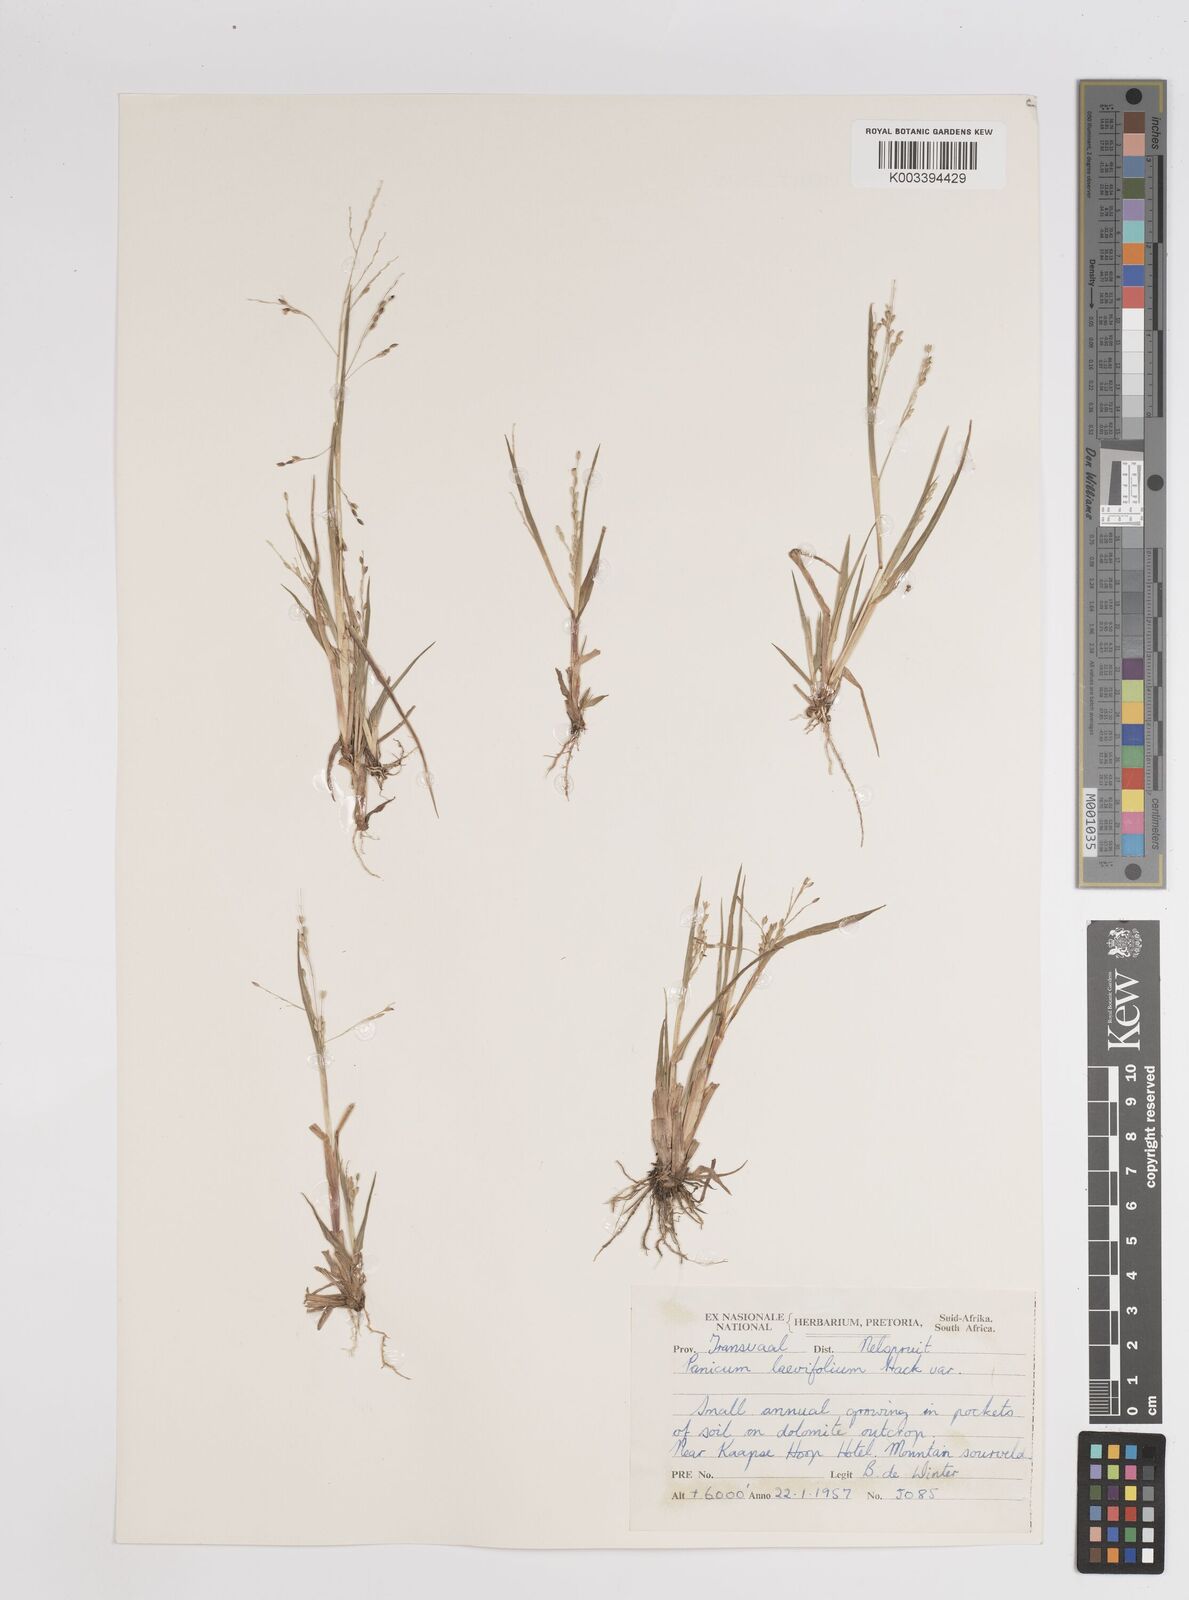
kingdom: Plantae
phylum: Tracheophyta
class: Liliopsida
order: Poales
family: Poaceae
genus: Panicum
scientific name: Panicum
